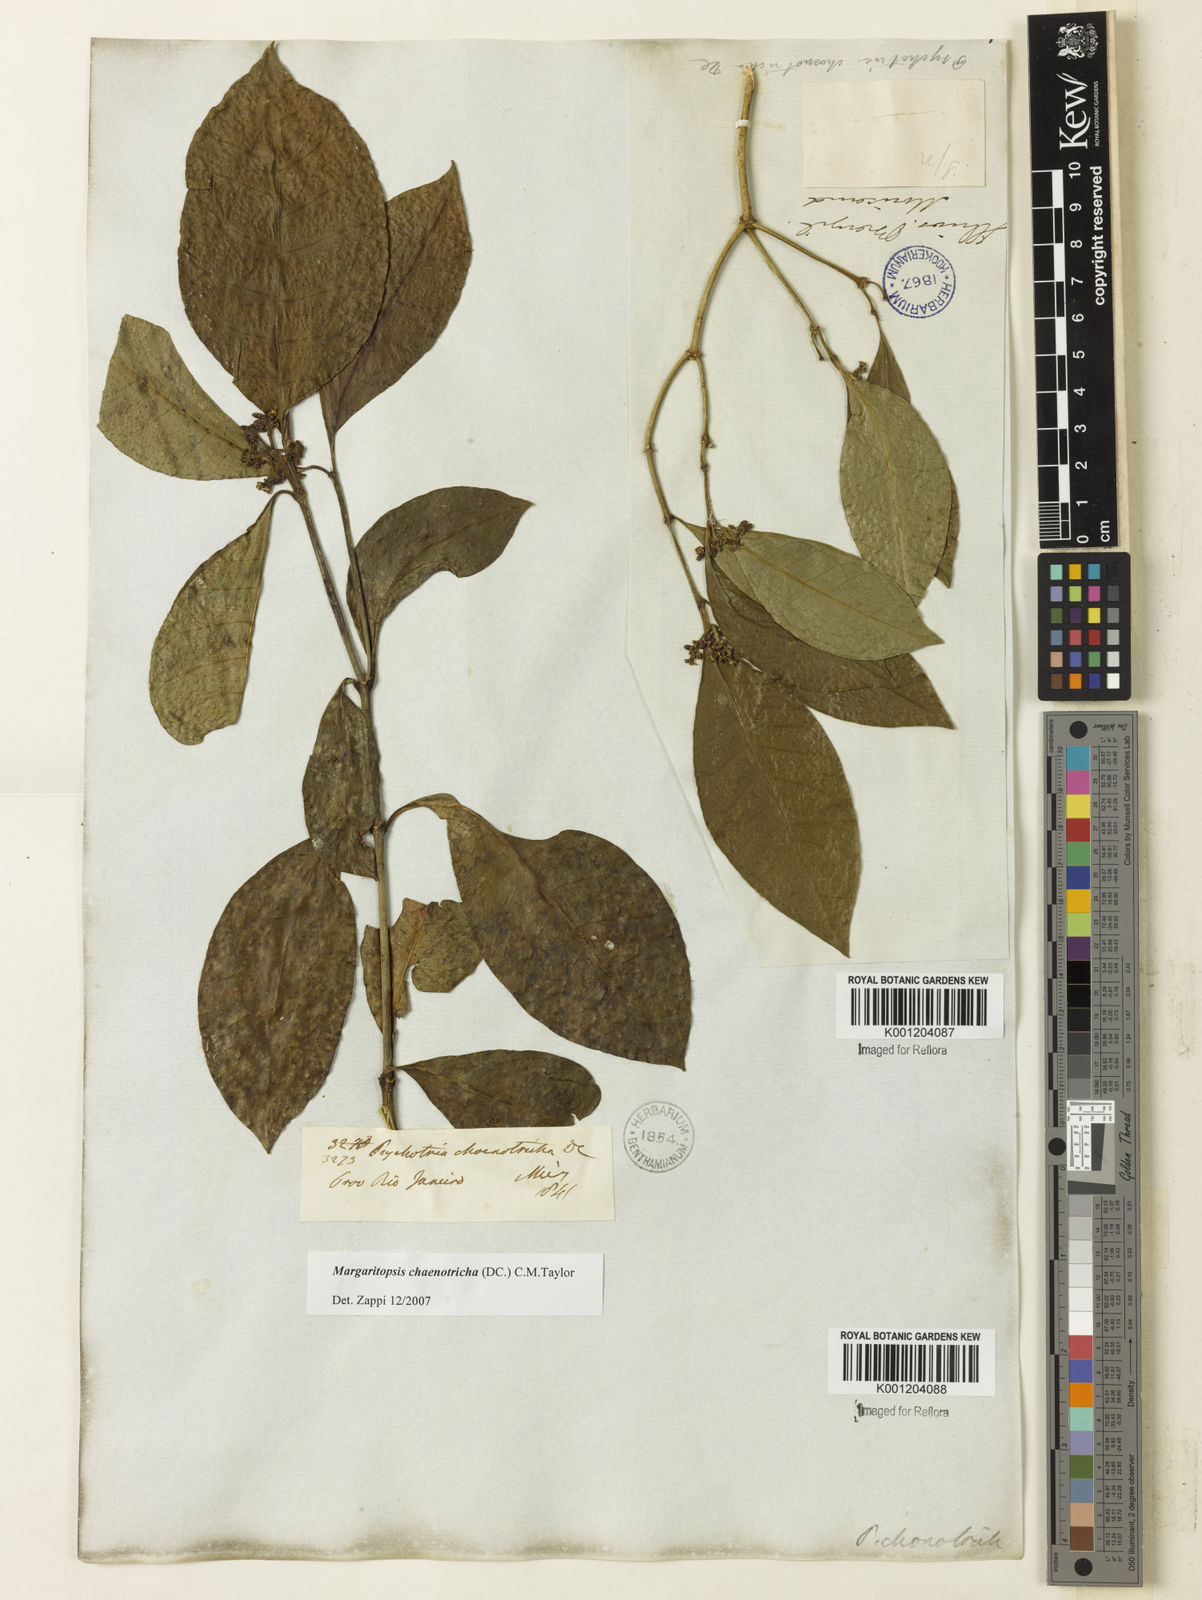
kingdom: Plantae
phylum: Tracheophyta
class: Magnoliopsida
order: Gentianales
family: Rubiaceae
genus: Eumachia
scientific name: Eumachia chaenotricha
